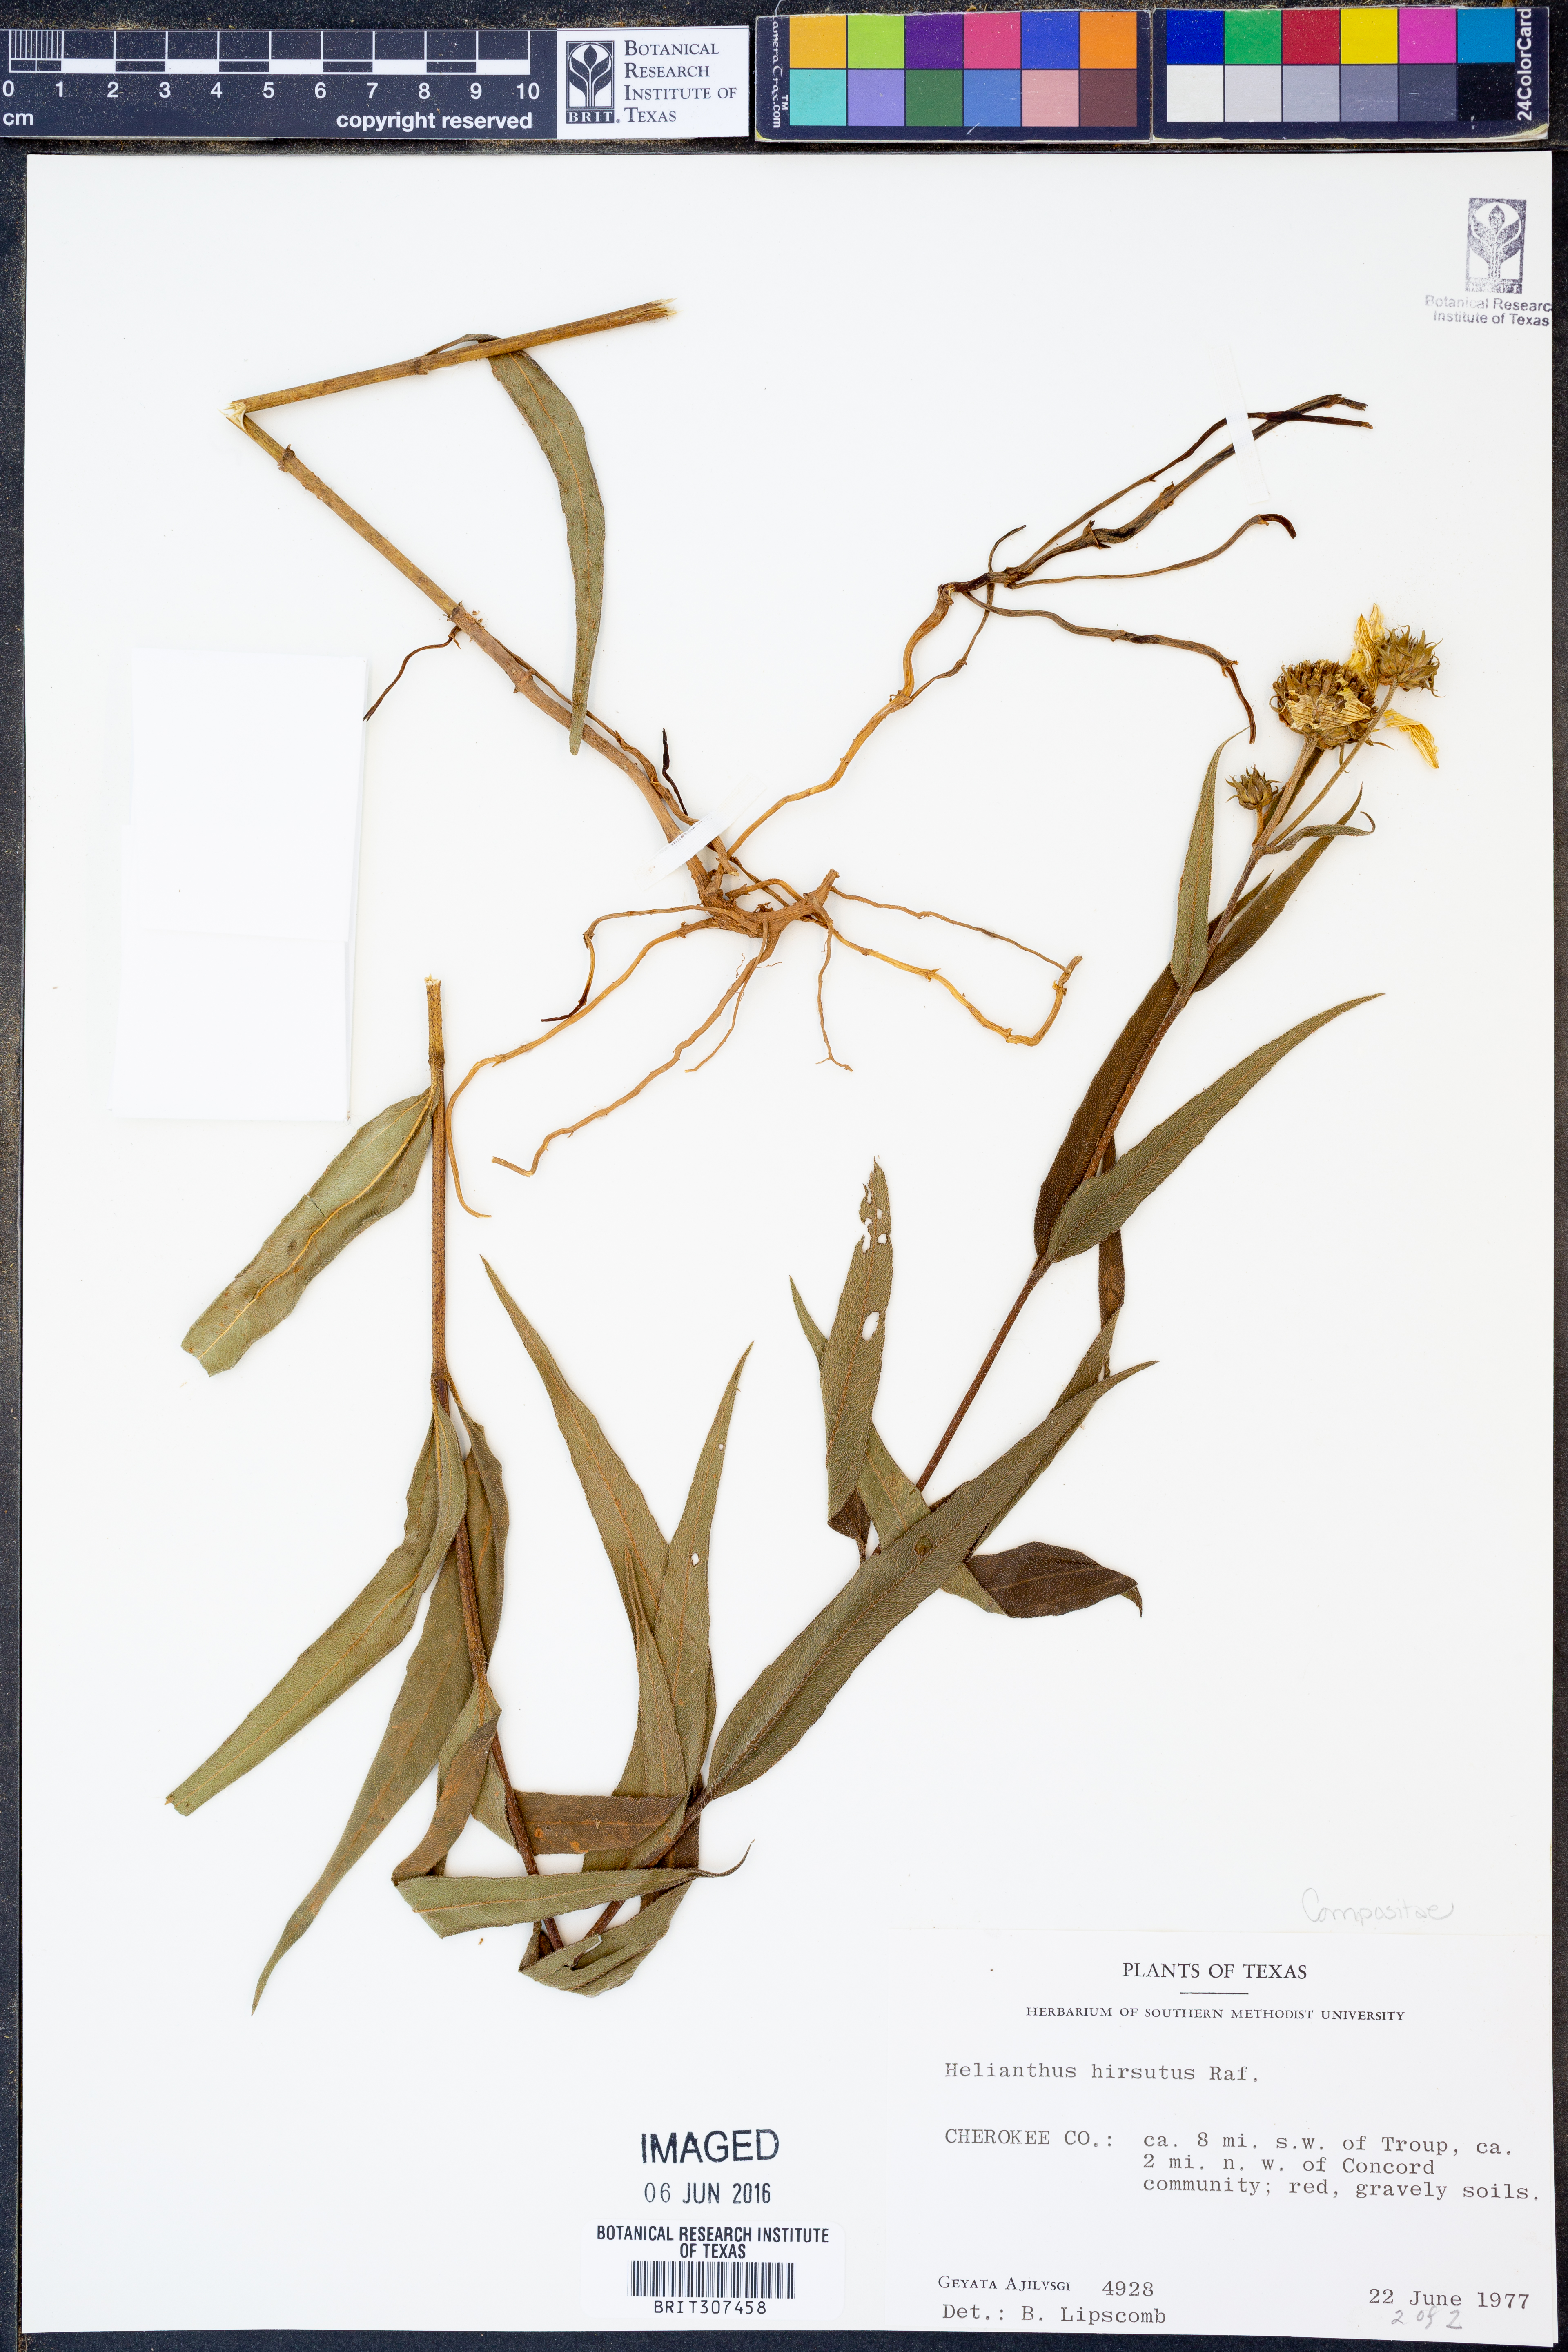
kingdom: Plantae
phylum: Tracheophyta
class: Magnoliopsida
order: Asterales
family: Asteraceae
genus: Helianthus
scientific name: Helianthus hirsutus
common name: Hairy sunflower
